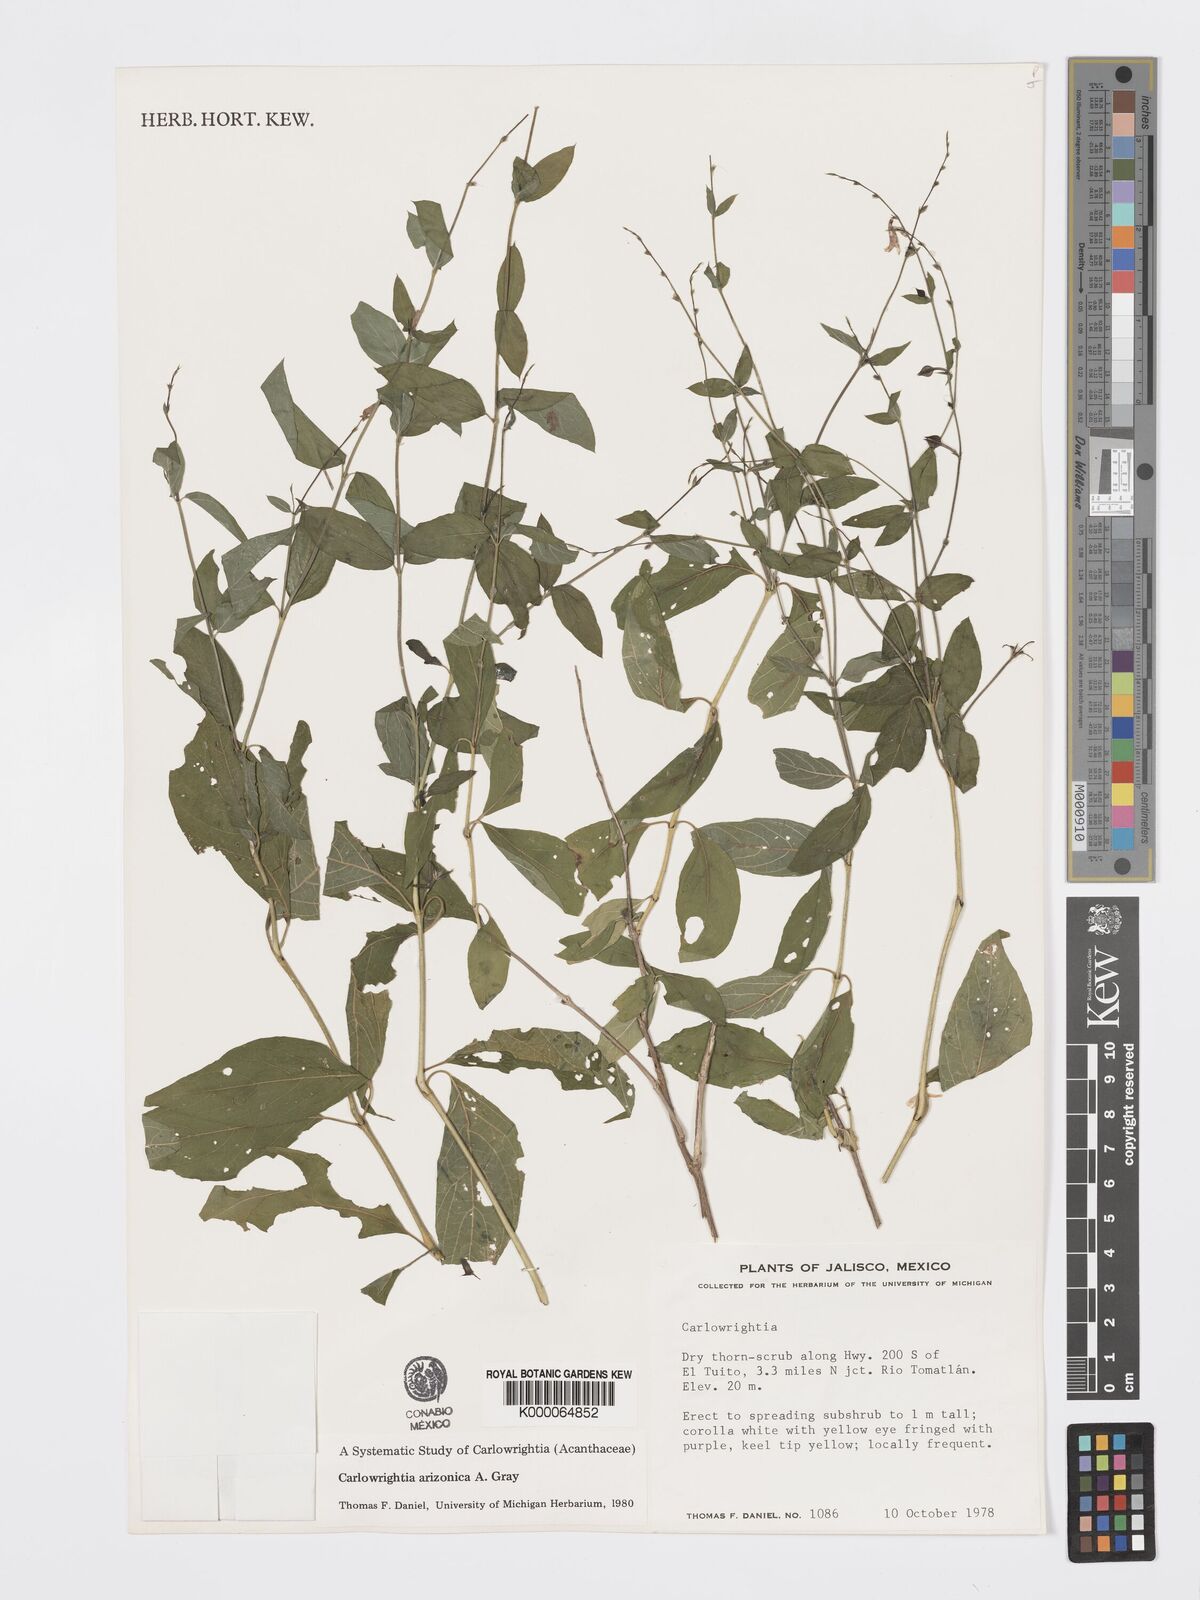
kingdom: Plantae
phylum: Tracheophyta
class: Magnoliopsida
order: Lamiales
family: Acanthaceae
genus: Carlowrightia
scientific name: Carlowrightia arizonica
